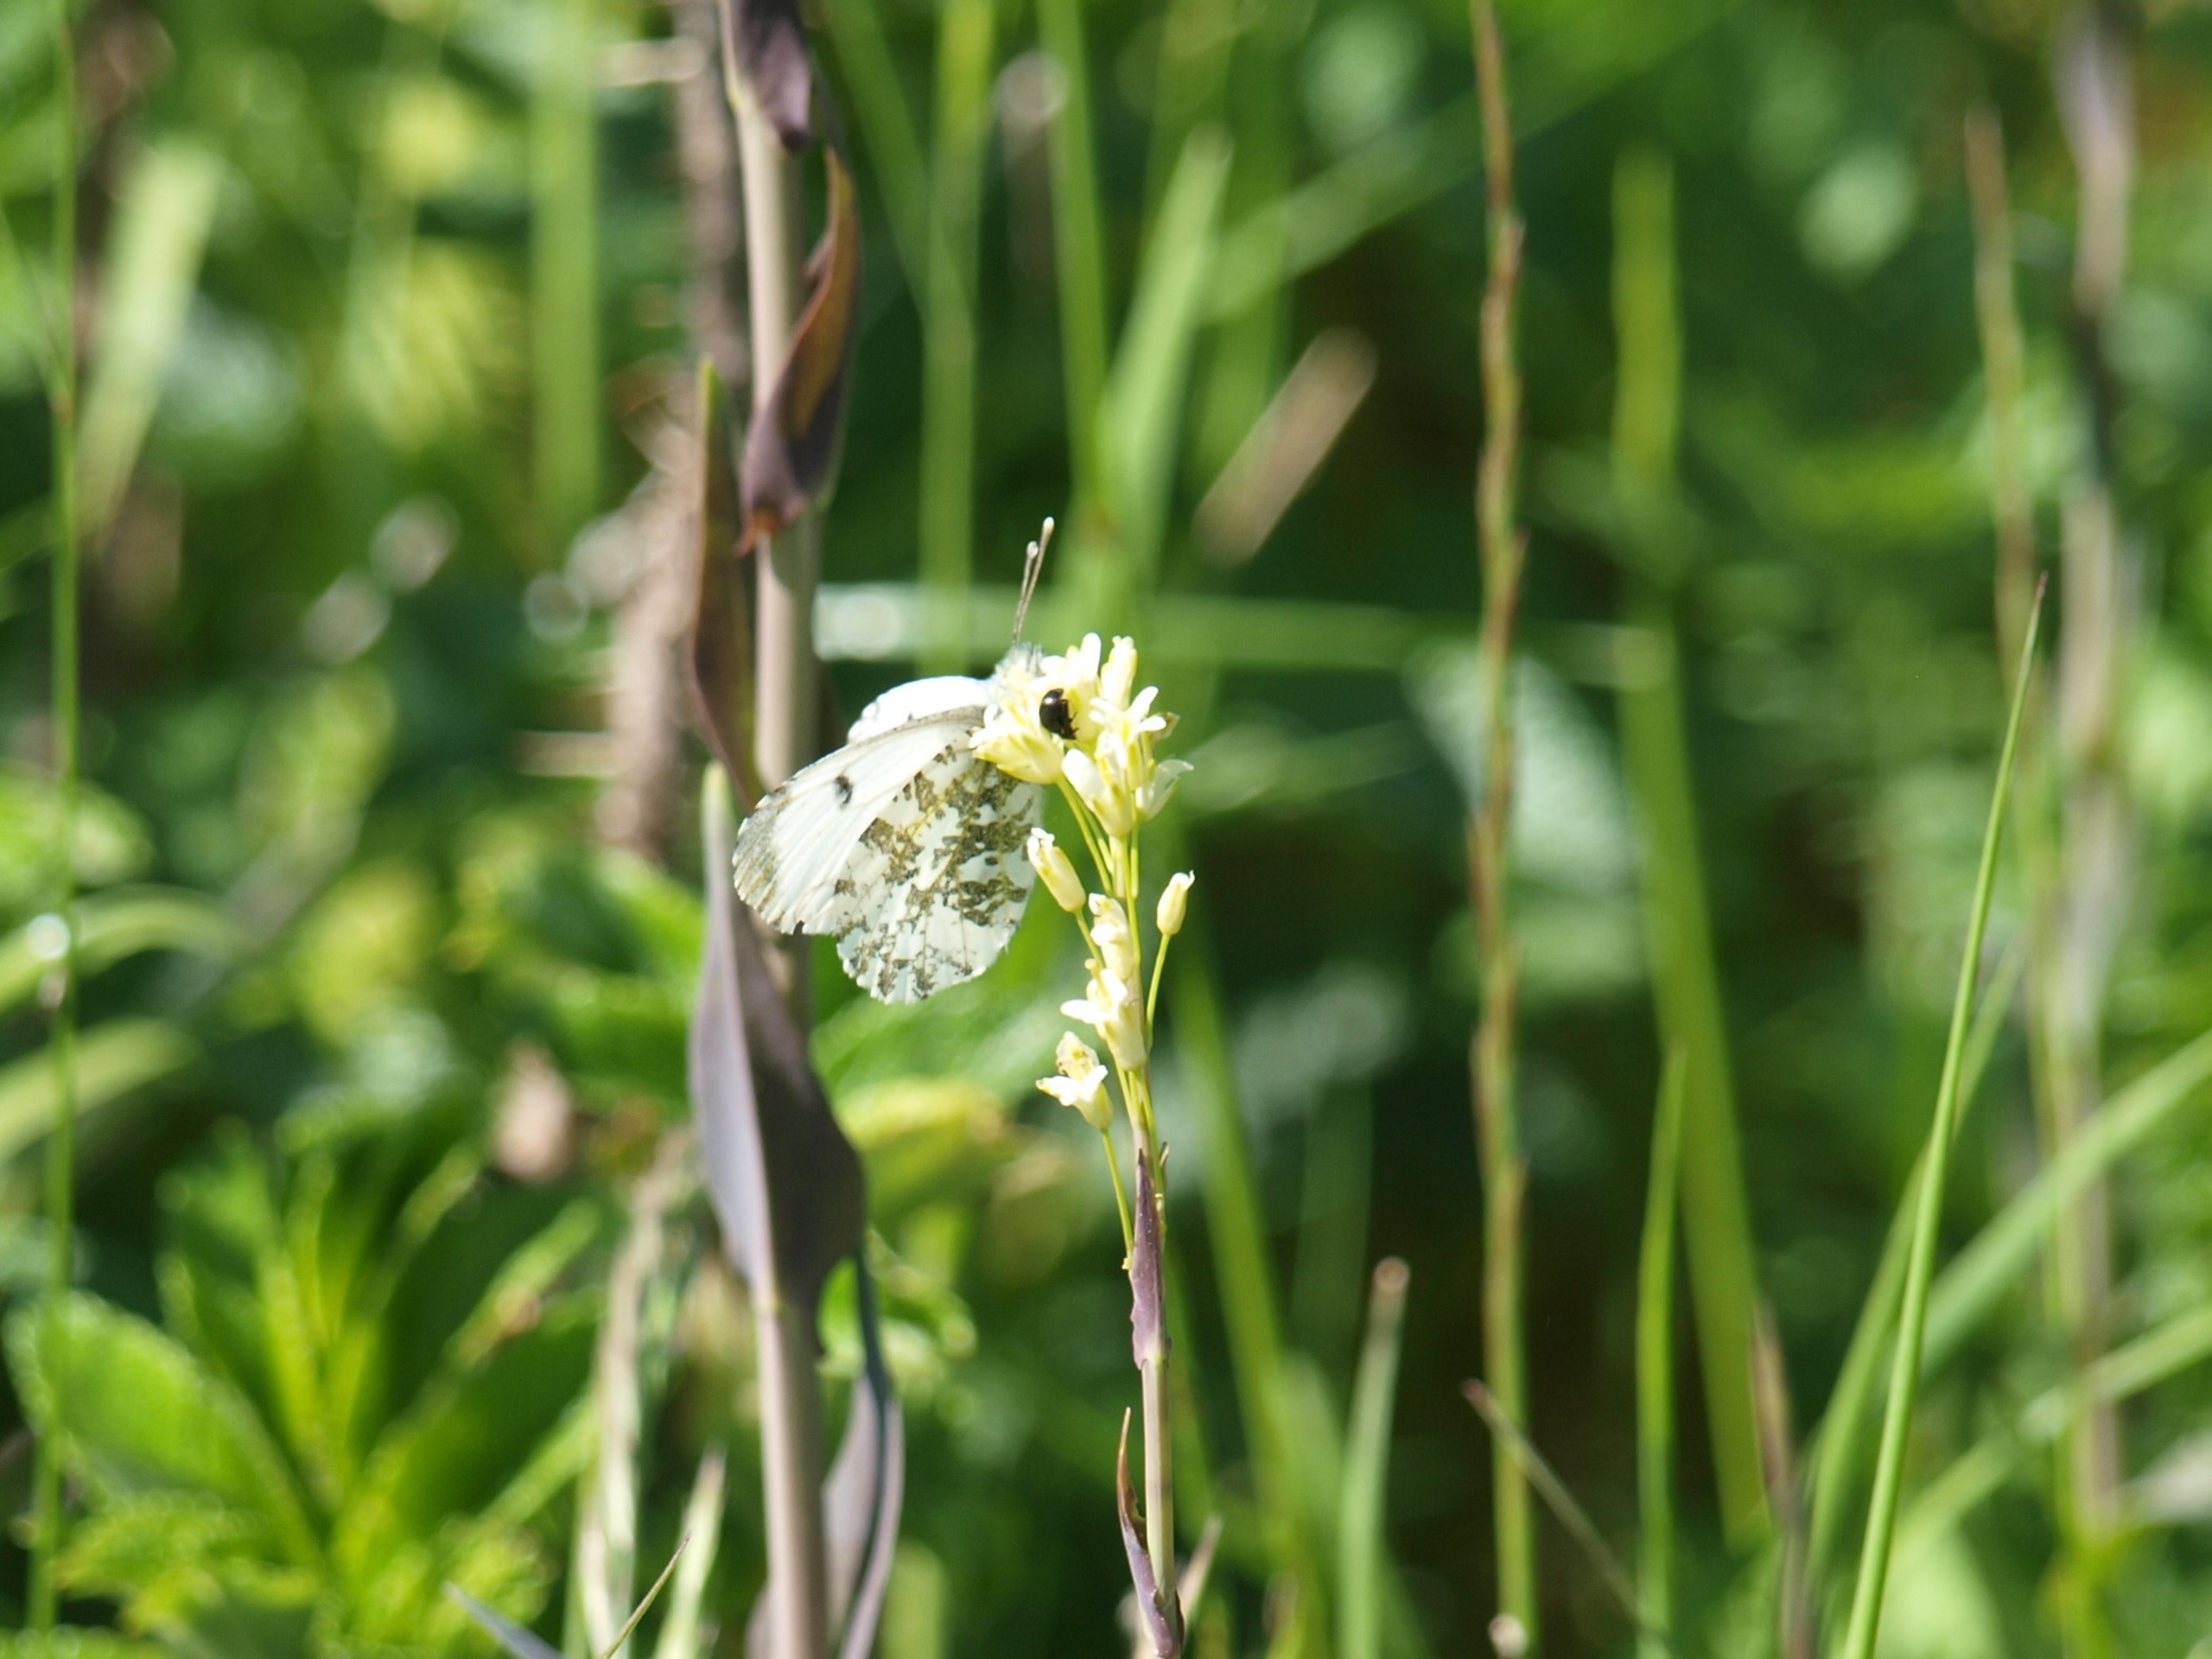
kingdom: Animalia
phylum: Arthropoda
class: Insecta
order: Lepidoptera
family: Pieridae
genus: Anthocharis
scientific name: Anthocharis cardamines
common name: Aurora
